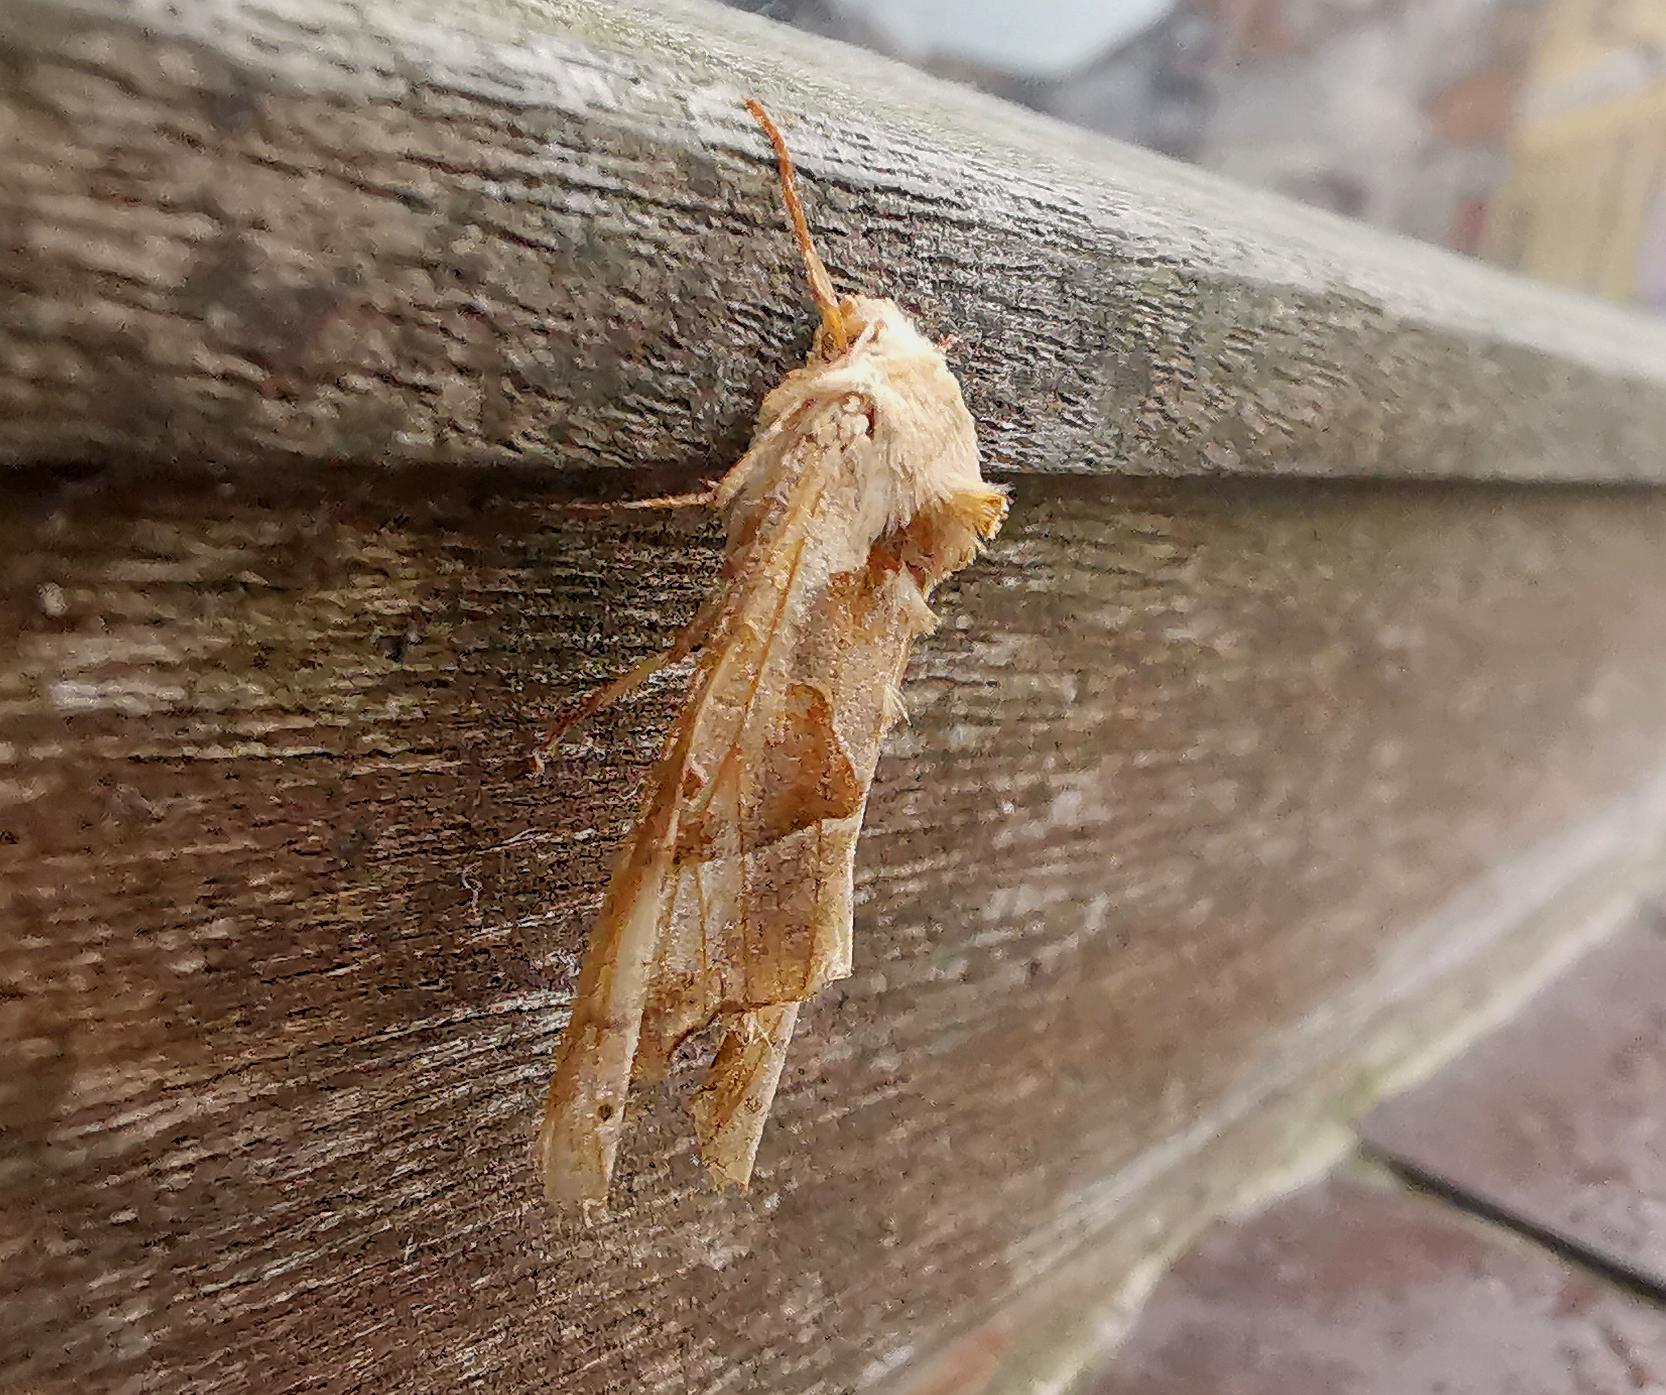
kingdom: Animalia
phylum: Arthropoda
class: Insecta
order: Lepidoptera
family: Noctuidae
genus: Phlogophora
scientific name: Phlogophora meticulosa
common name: Agatugle
